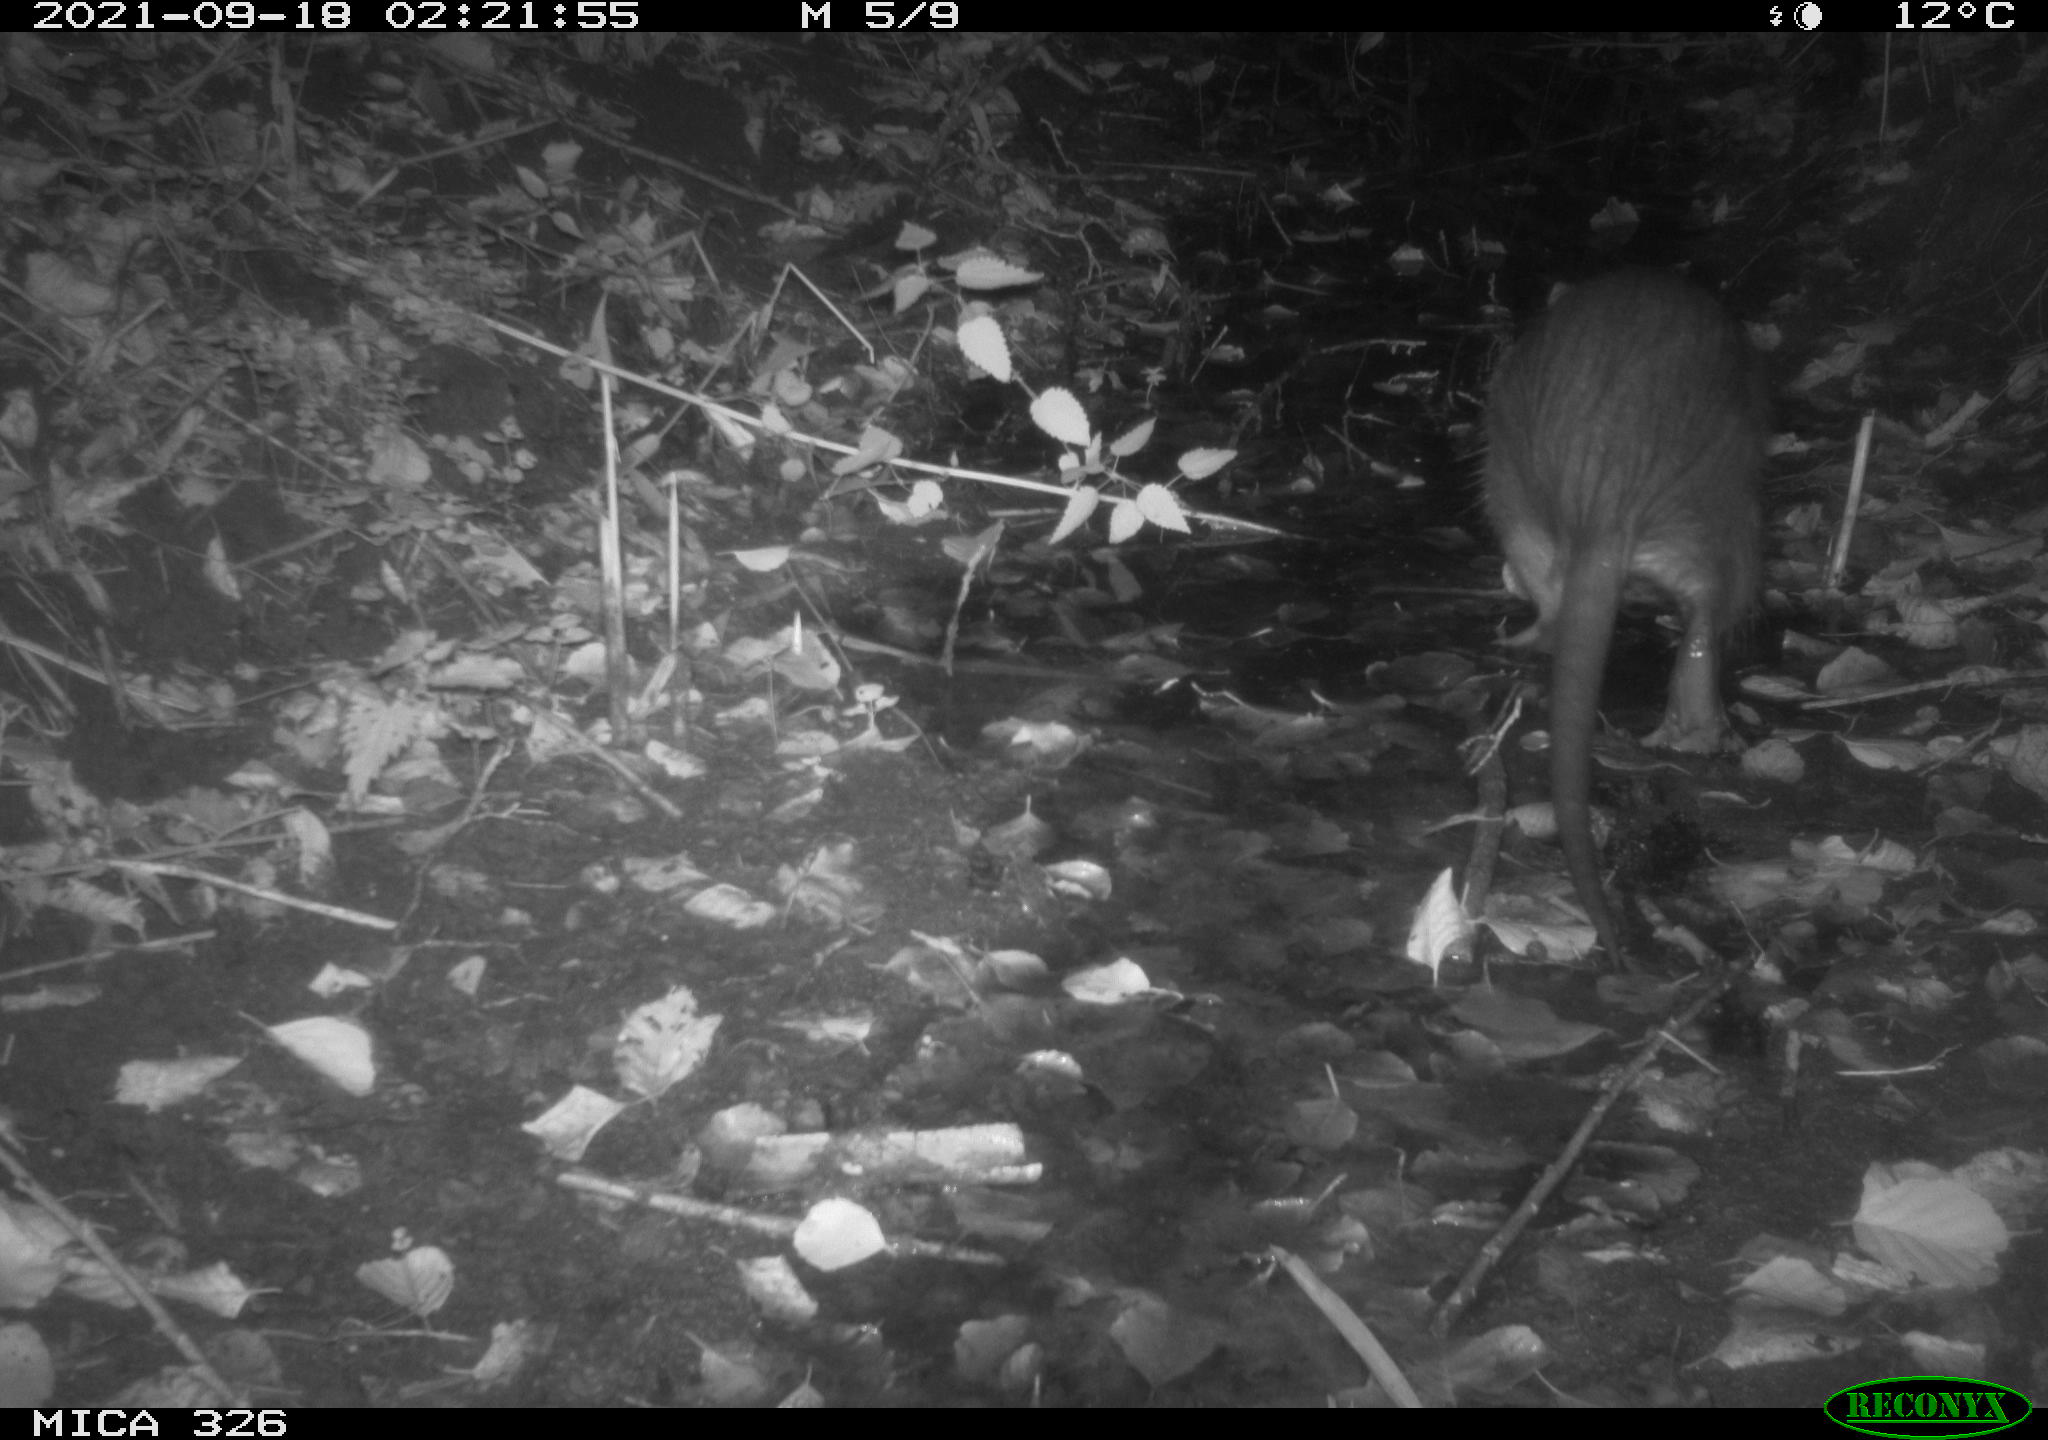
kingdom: Animalia
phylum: Chordata
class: Mammalia
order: Rodentia
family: Myocastoridae
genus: Myocastor
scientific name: Myocastor coypus
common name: Coypu
